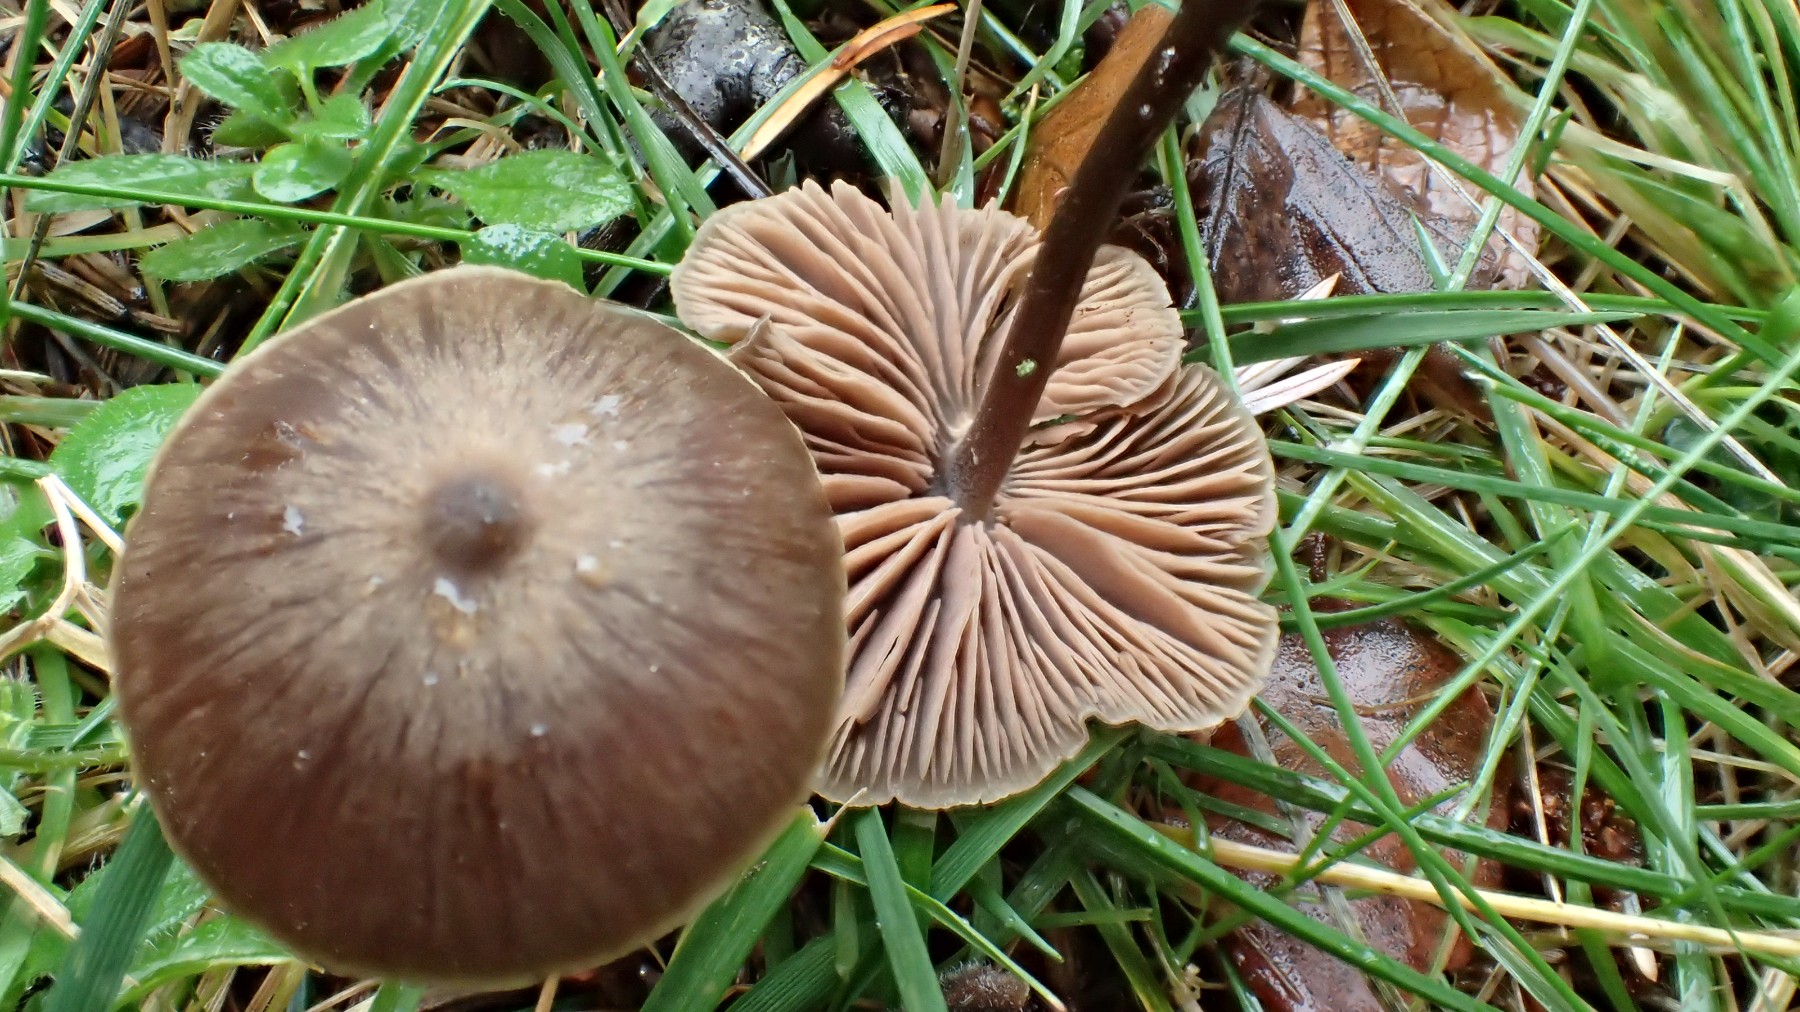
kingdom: Fungi
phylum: Basidiomycota
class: Agaricomycetes
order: Agaricales
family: Entolomataceae
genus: Entoloma
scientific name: Entoloma kristiansenii
